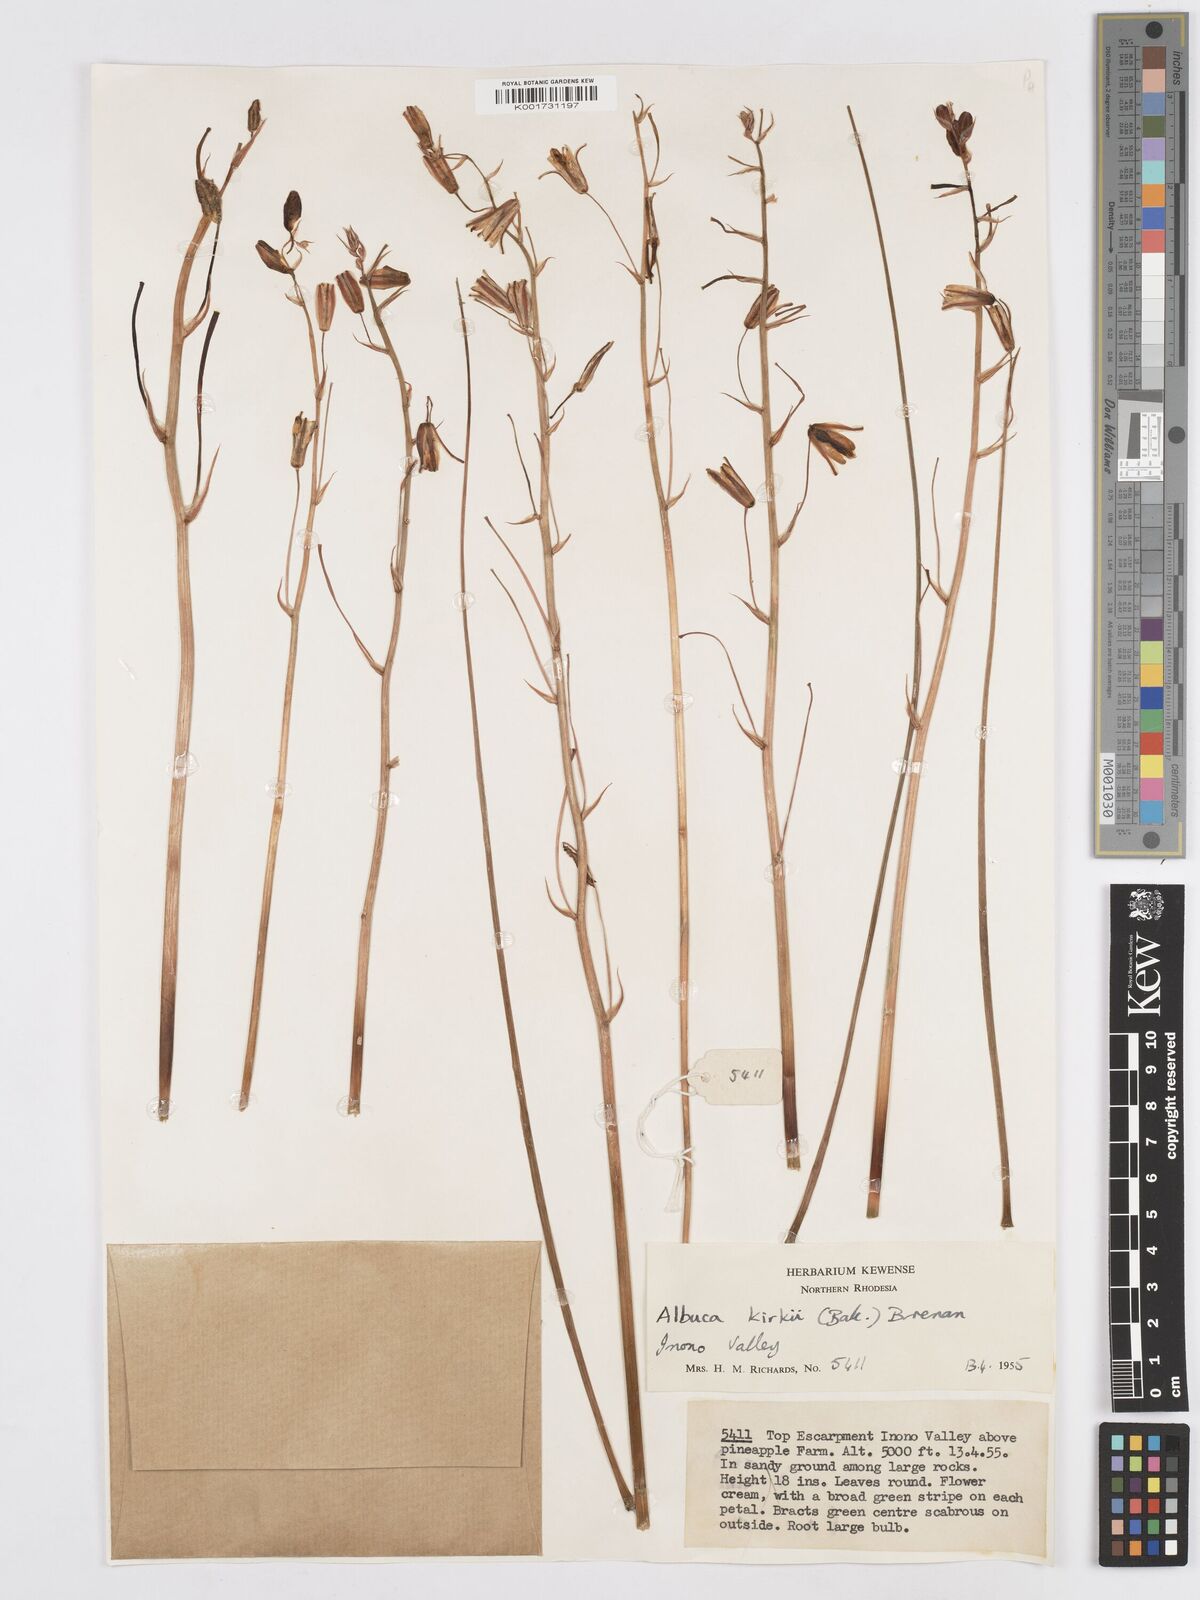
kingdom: Plantae
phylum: Tracheophyta
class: Liliopsida
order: Asparagales
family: Asparagaceae
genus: Albuca
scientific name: Albuca kirkii
